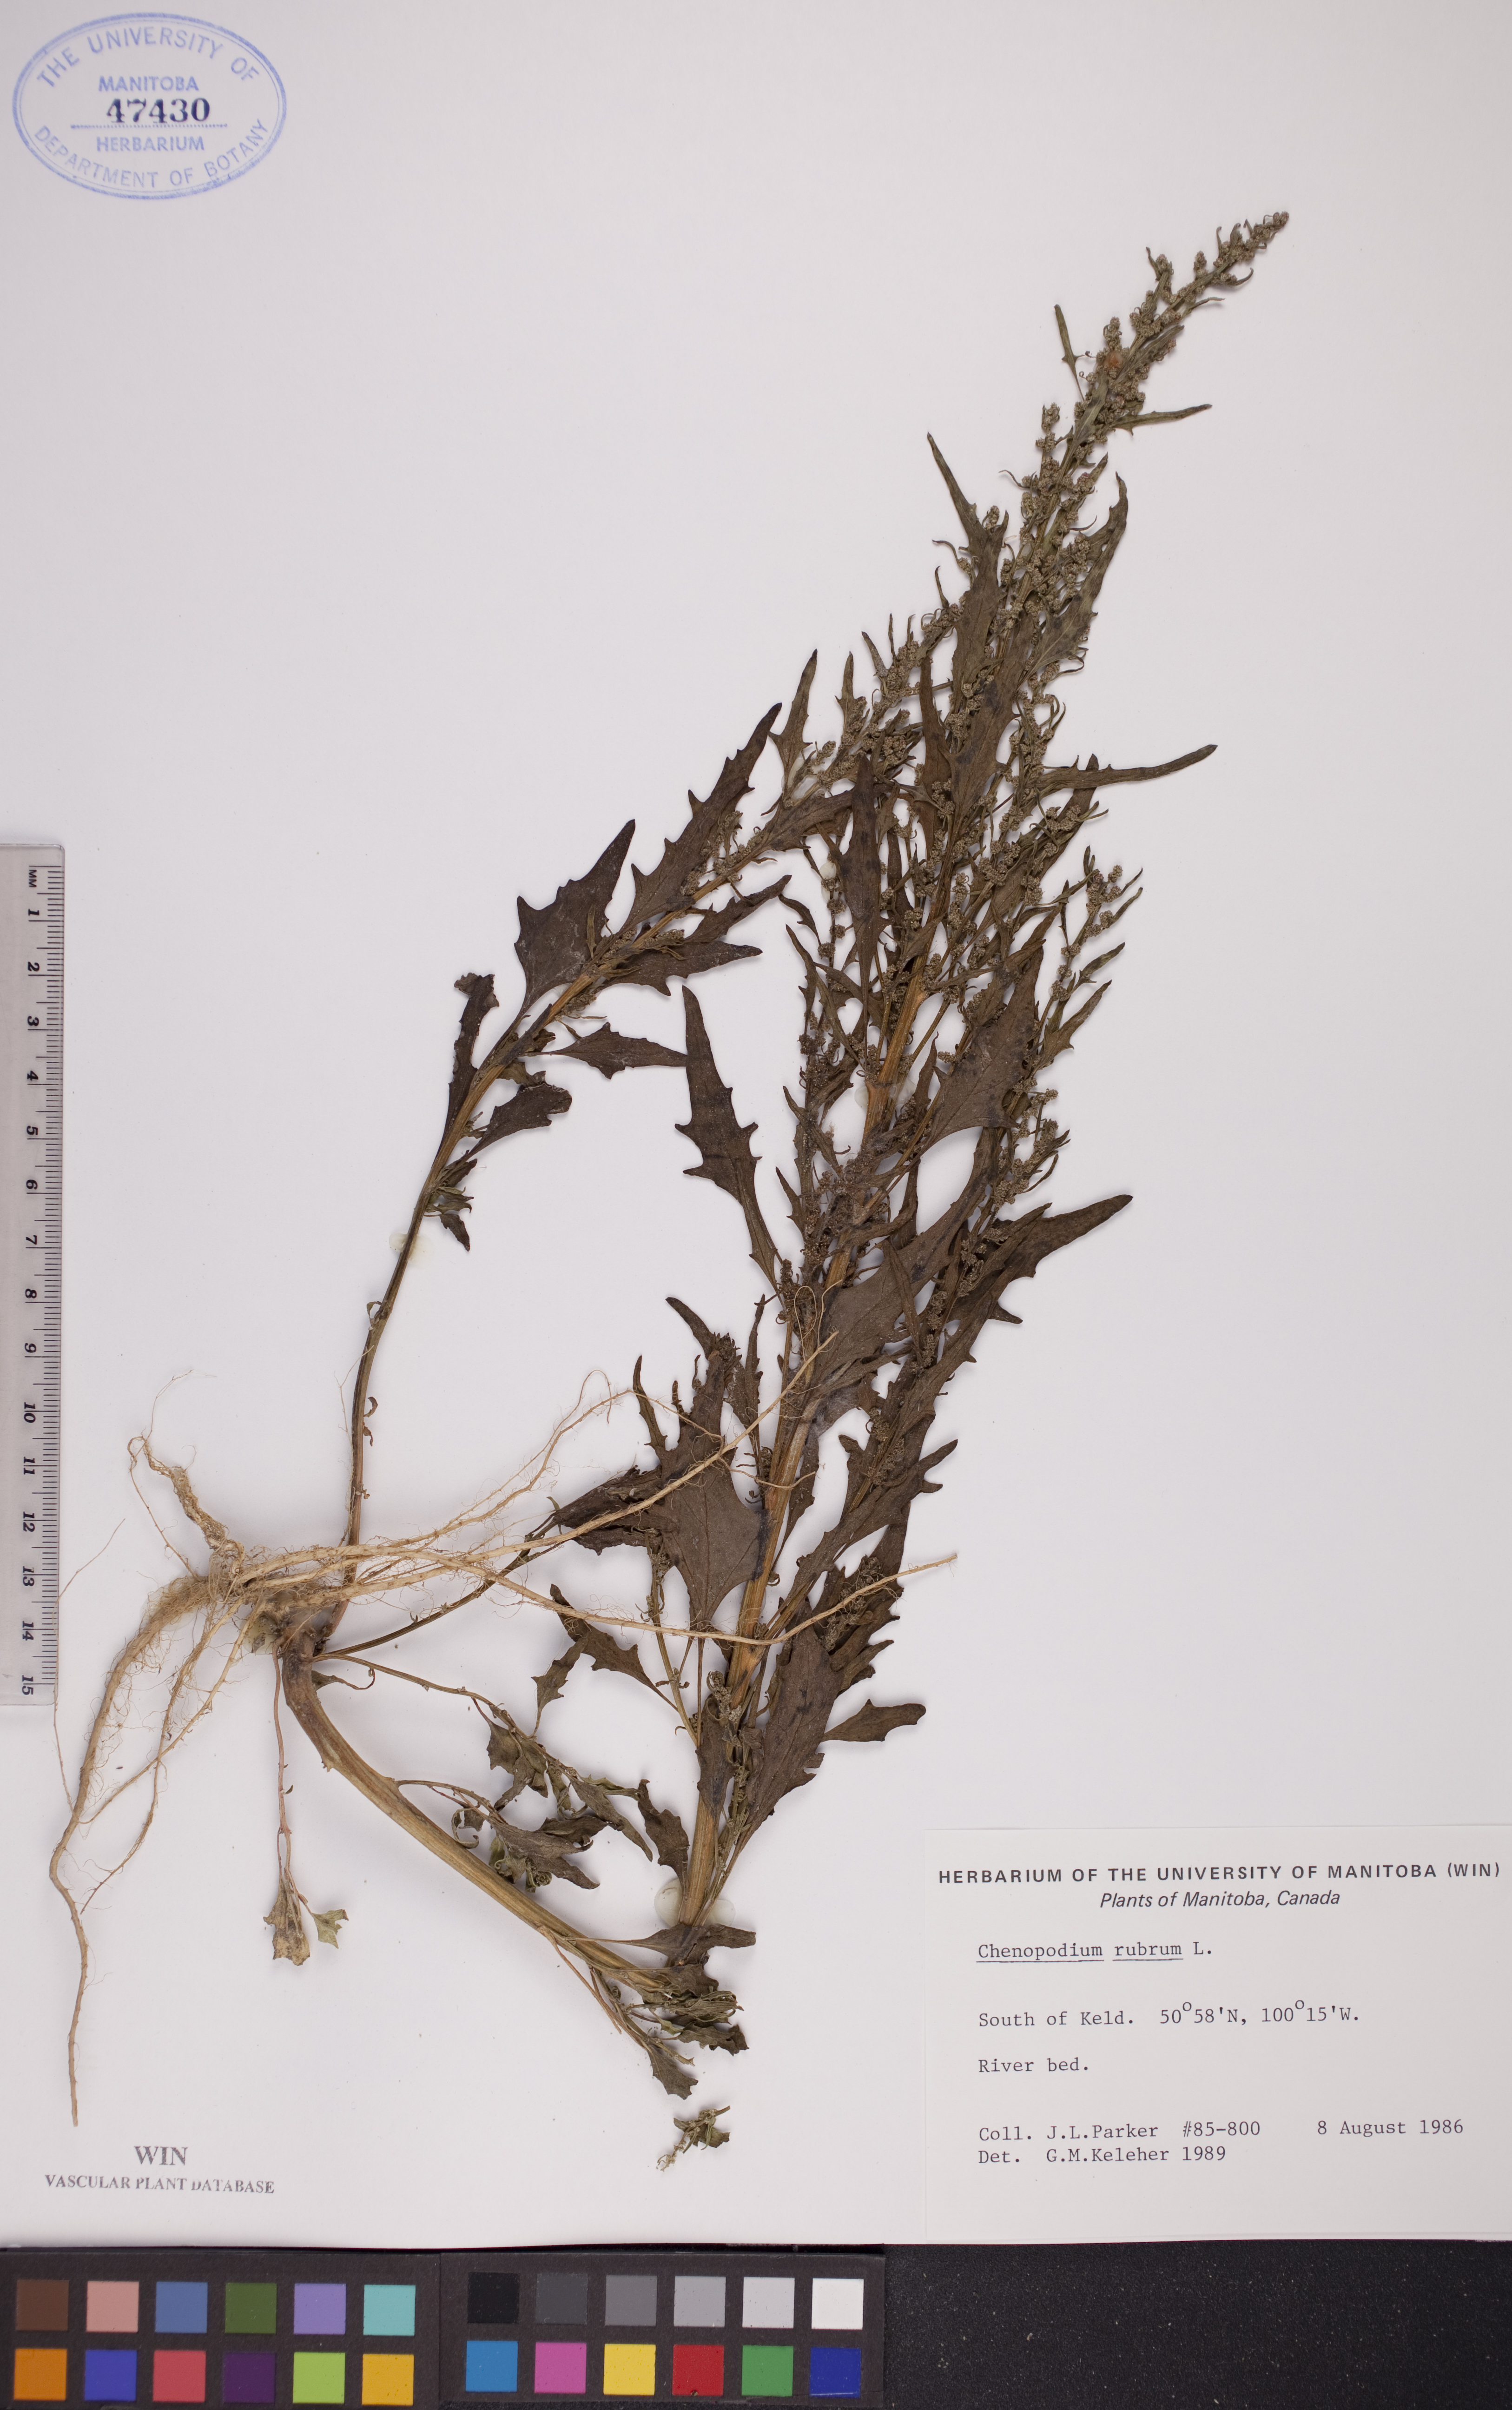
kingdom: Plantae
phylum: Tracheophyta
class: Magnoliopsida
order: Caryophyllales
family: Amaranthaceae
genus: Oxybasis
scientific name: Oxybasis rubra
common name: Red goosefoot
